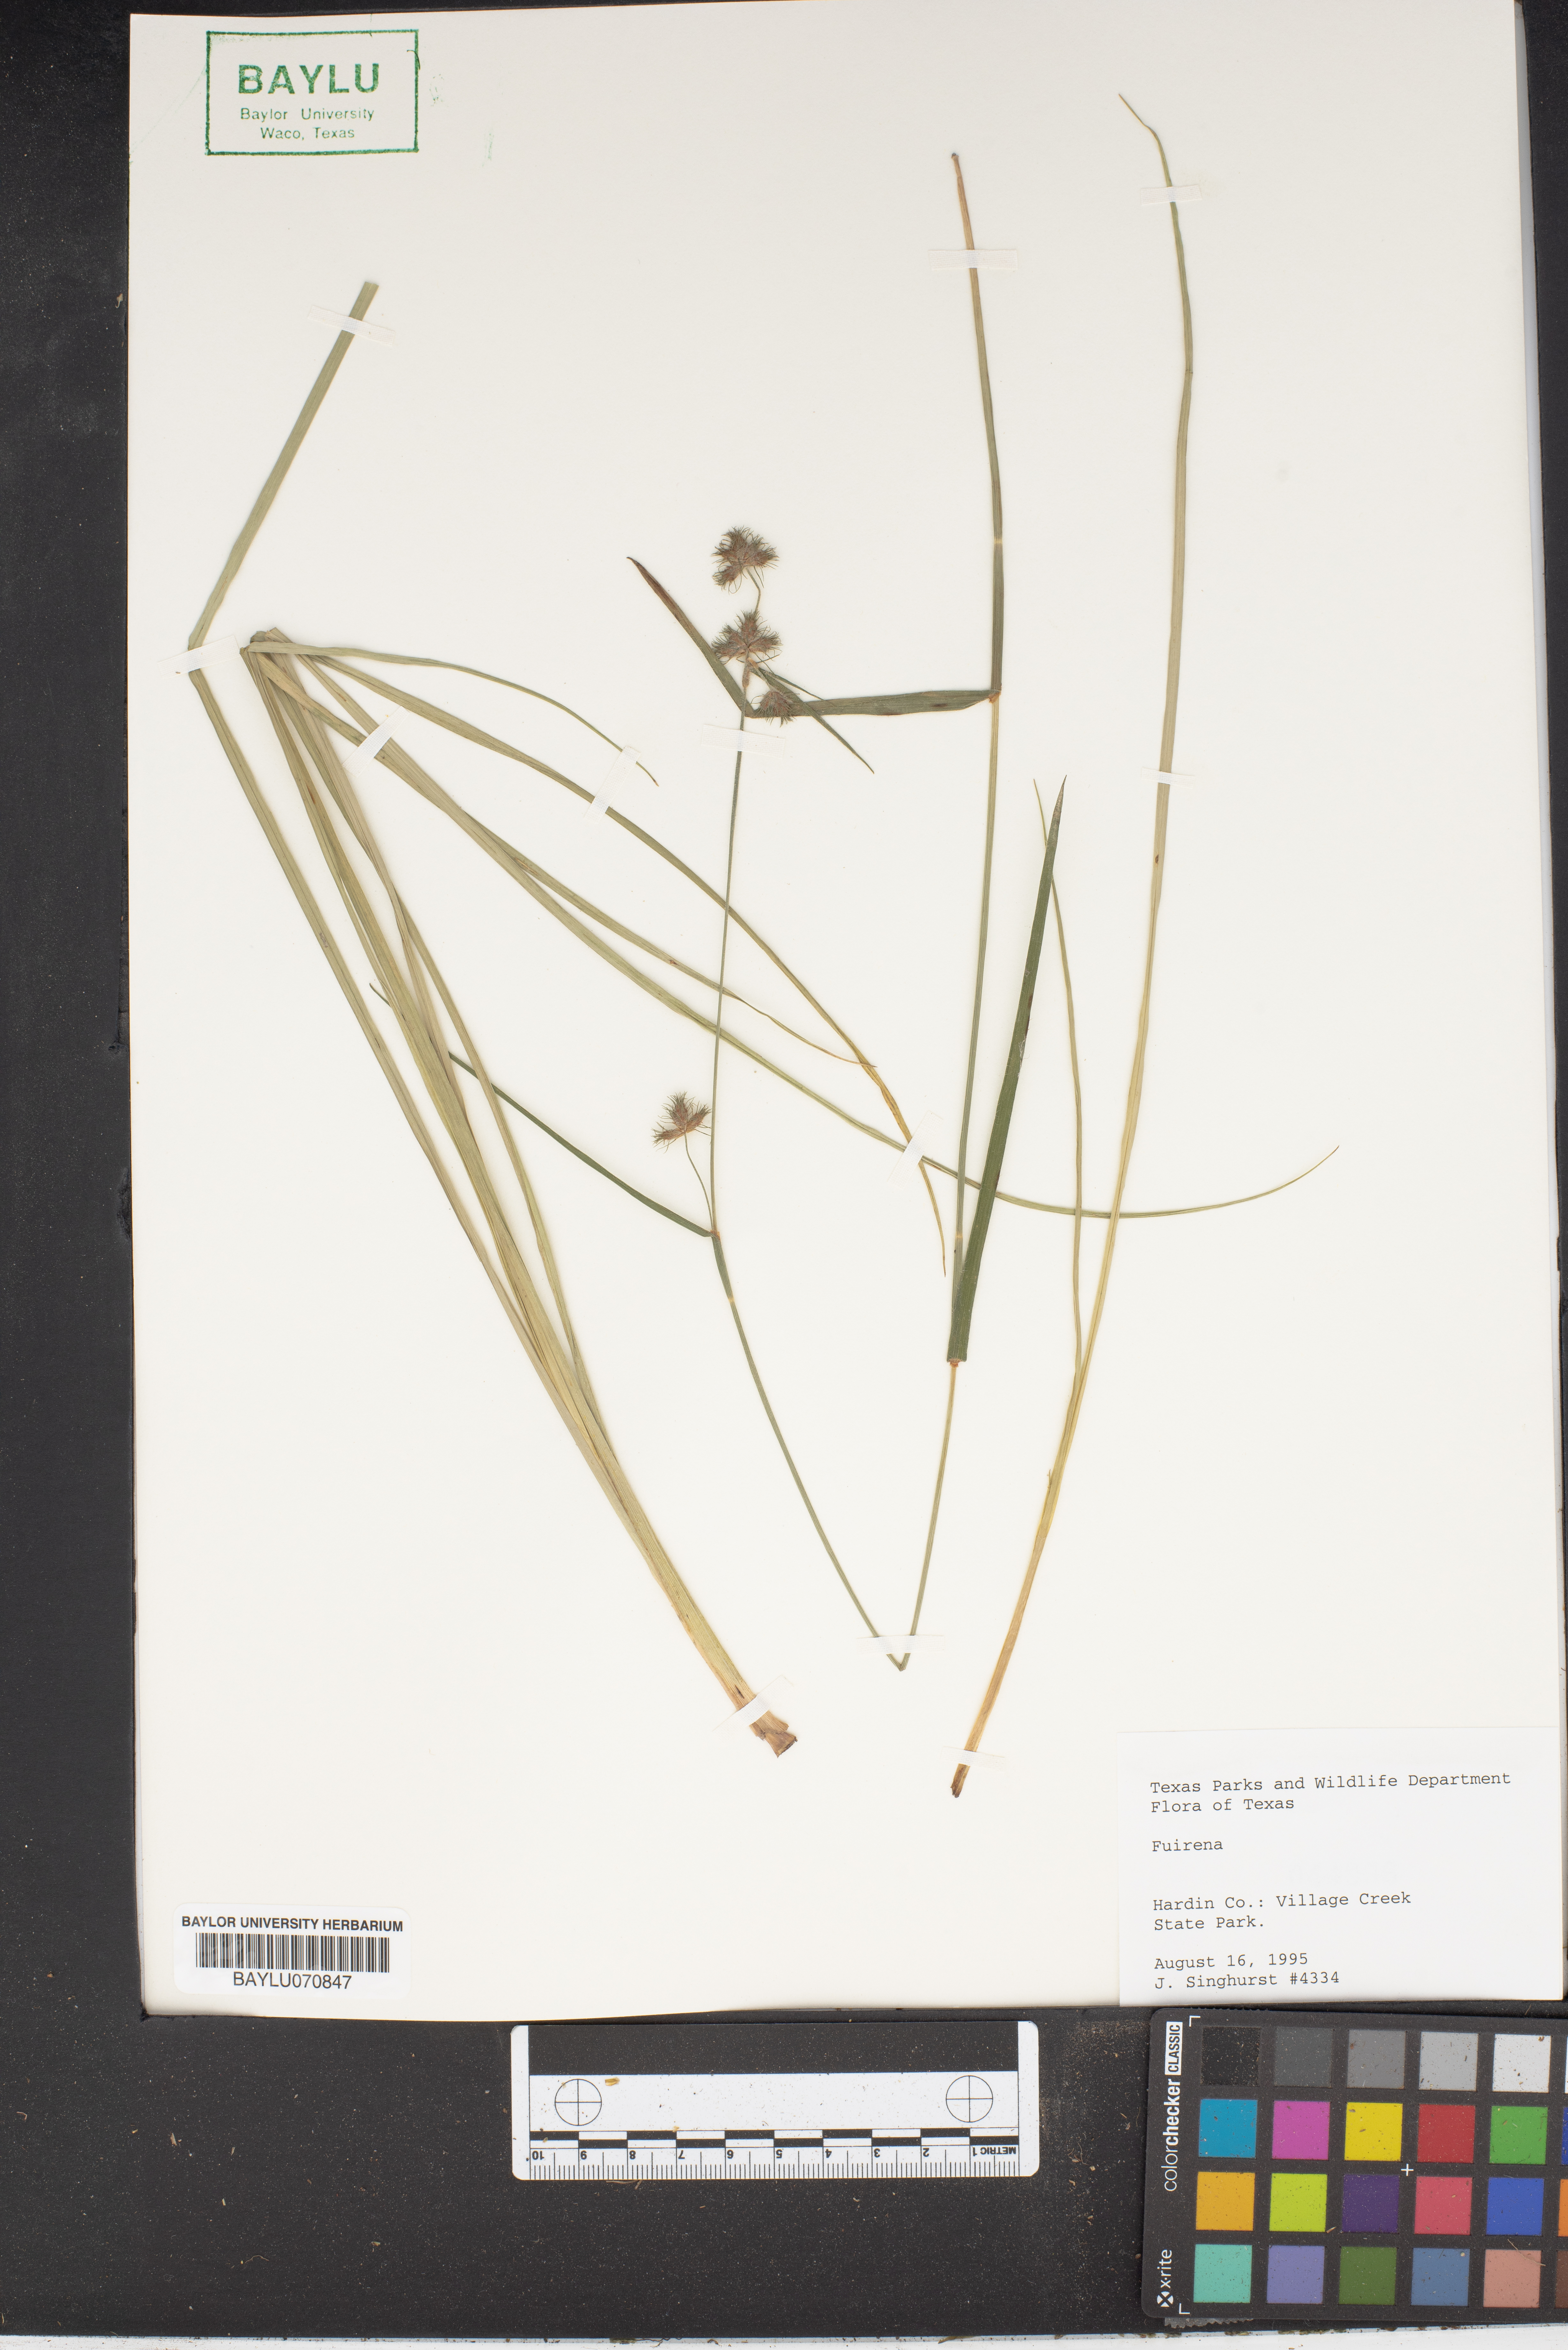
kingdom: Plantae
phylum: Tracheophyta
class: Liliopsida
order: Poales
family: Cyperaceae
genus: Fuirena
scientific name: Fuirena
